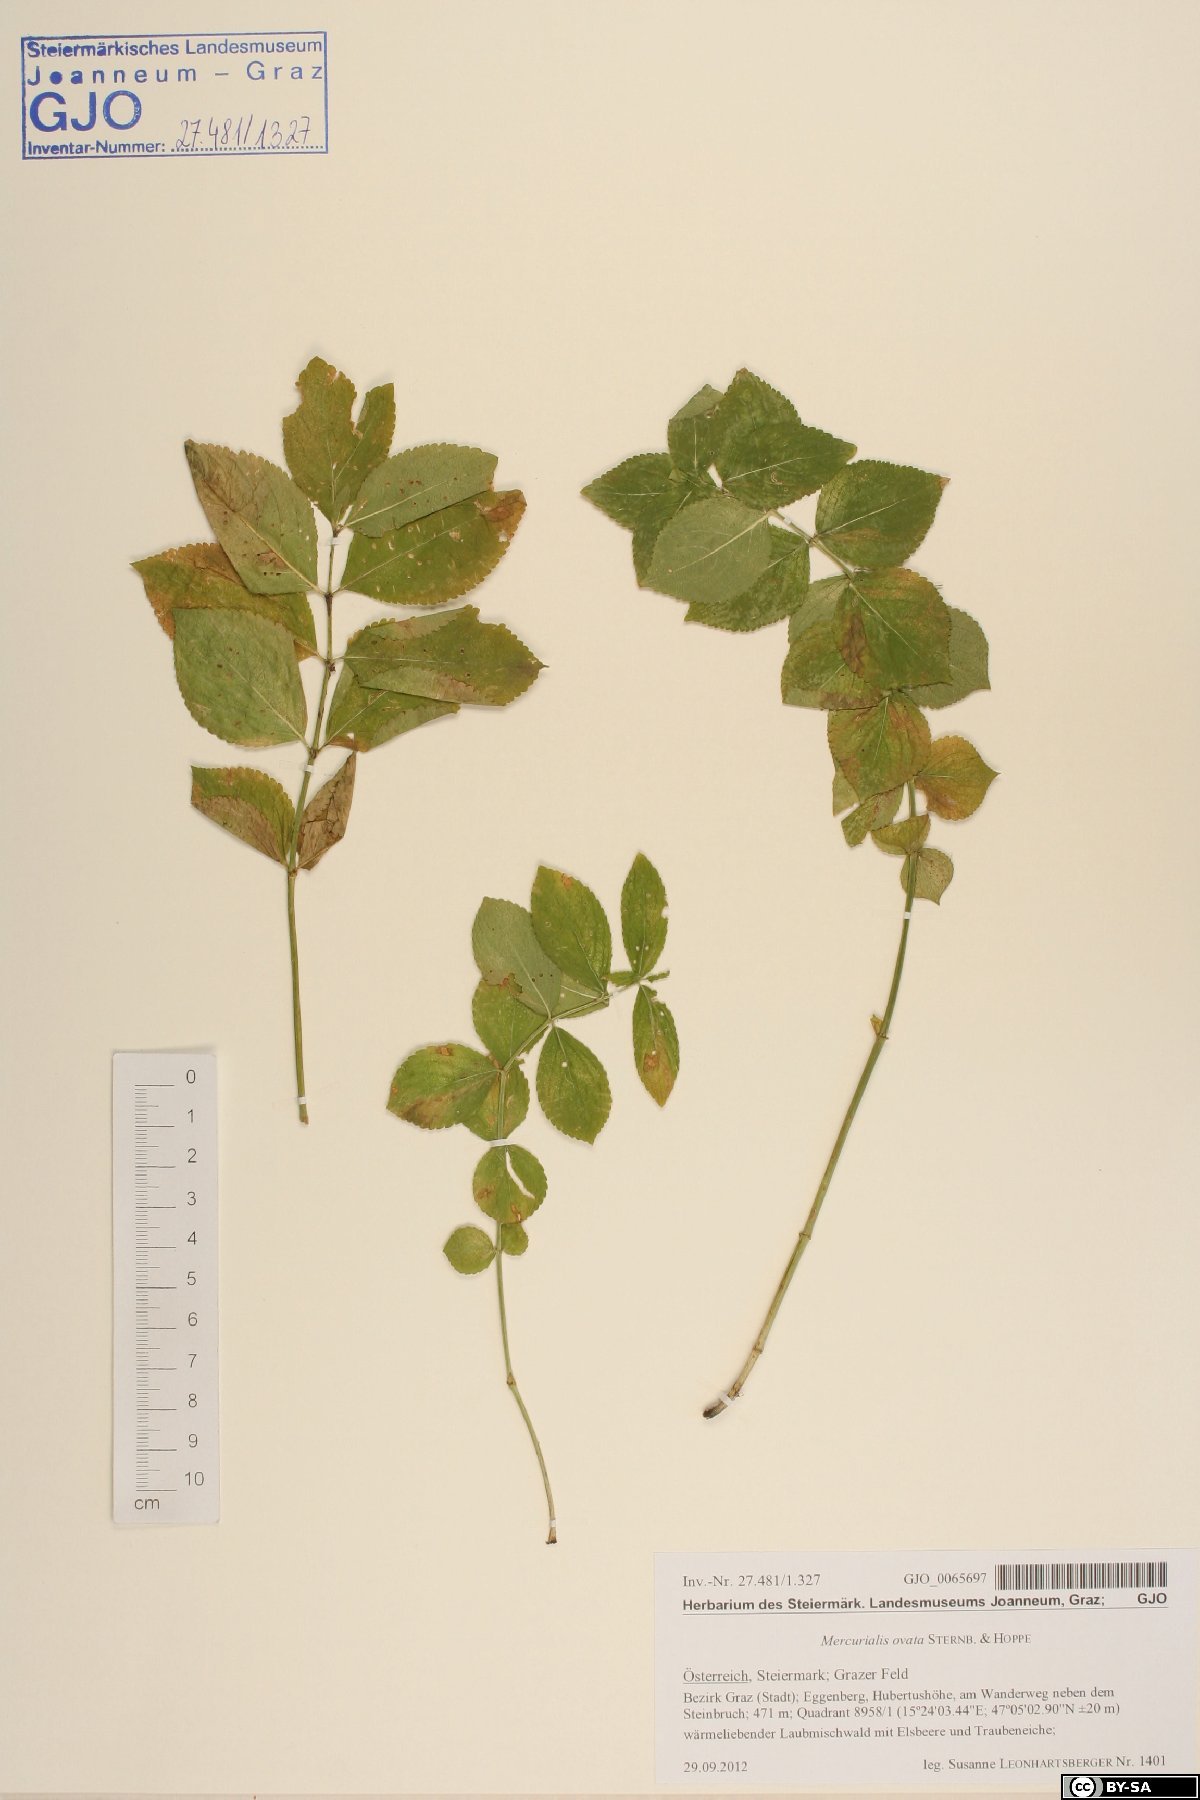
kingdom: Plantae
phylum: Tracheophyta
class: Magnoliopsida
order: Malpighiales
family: Euphorbiaceae
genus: Mercurialis
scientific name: Mercurialis ovata
